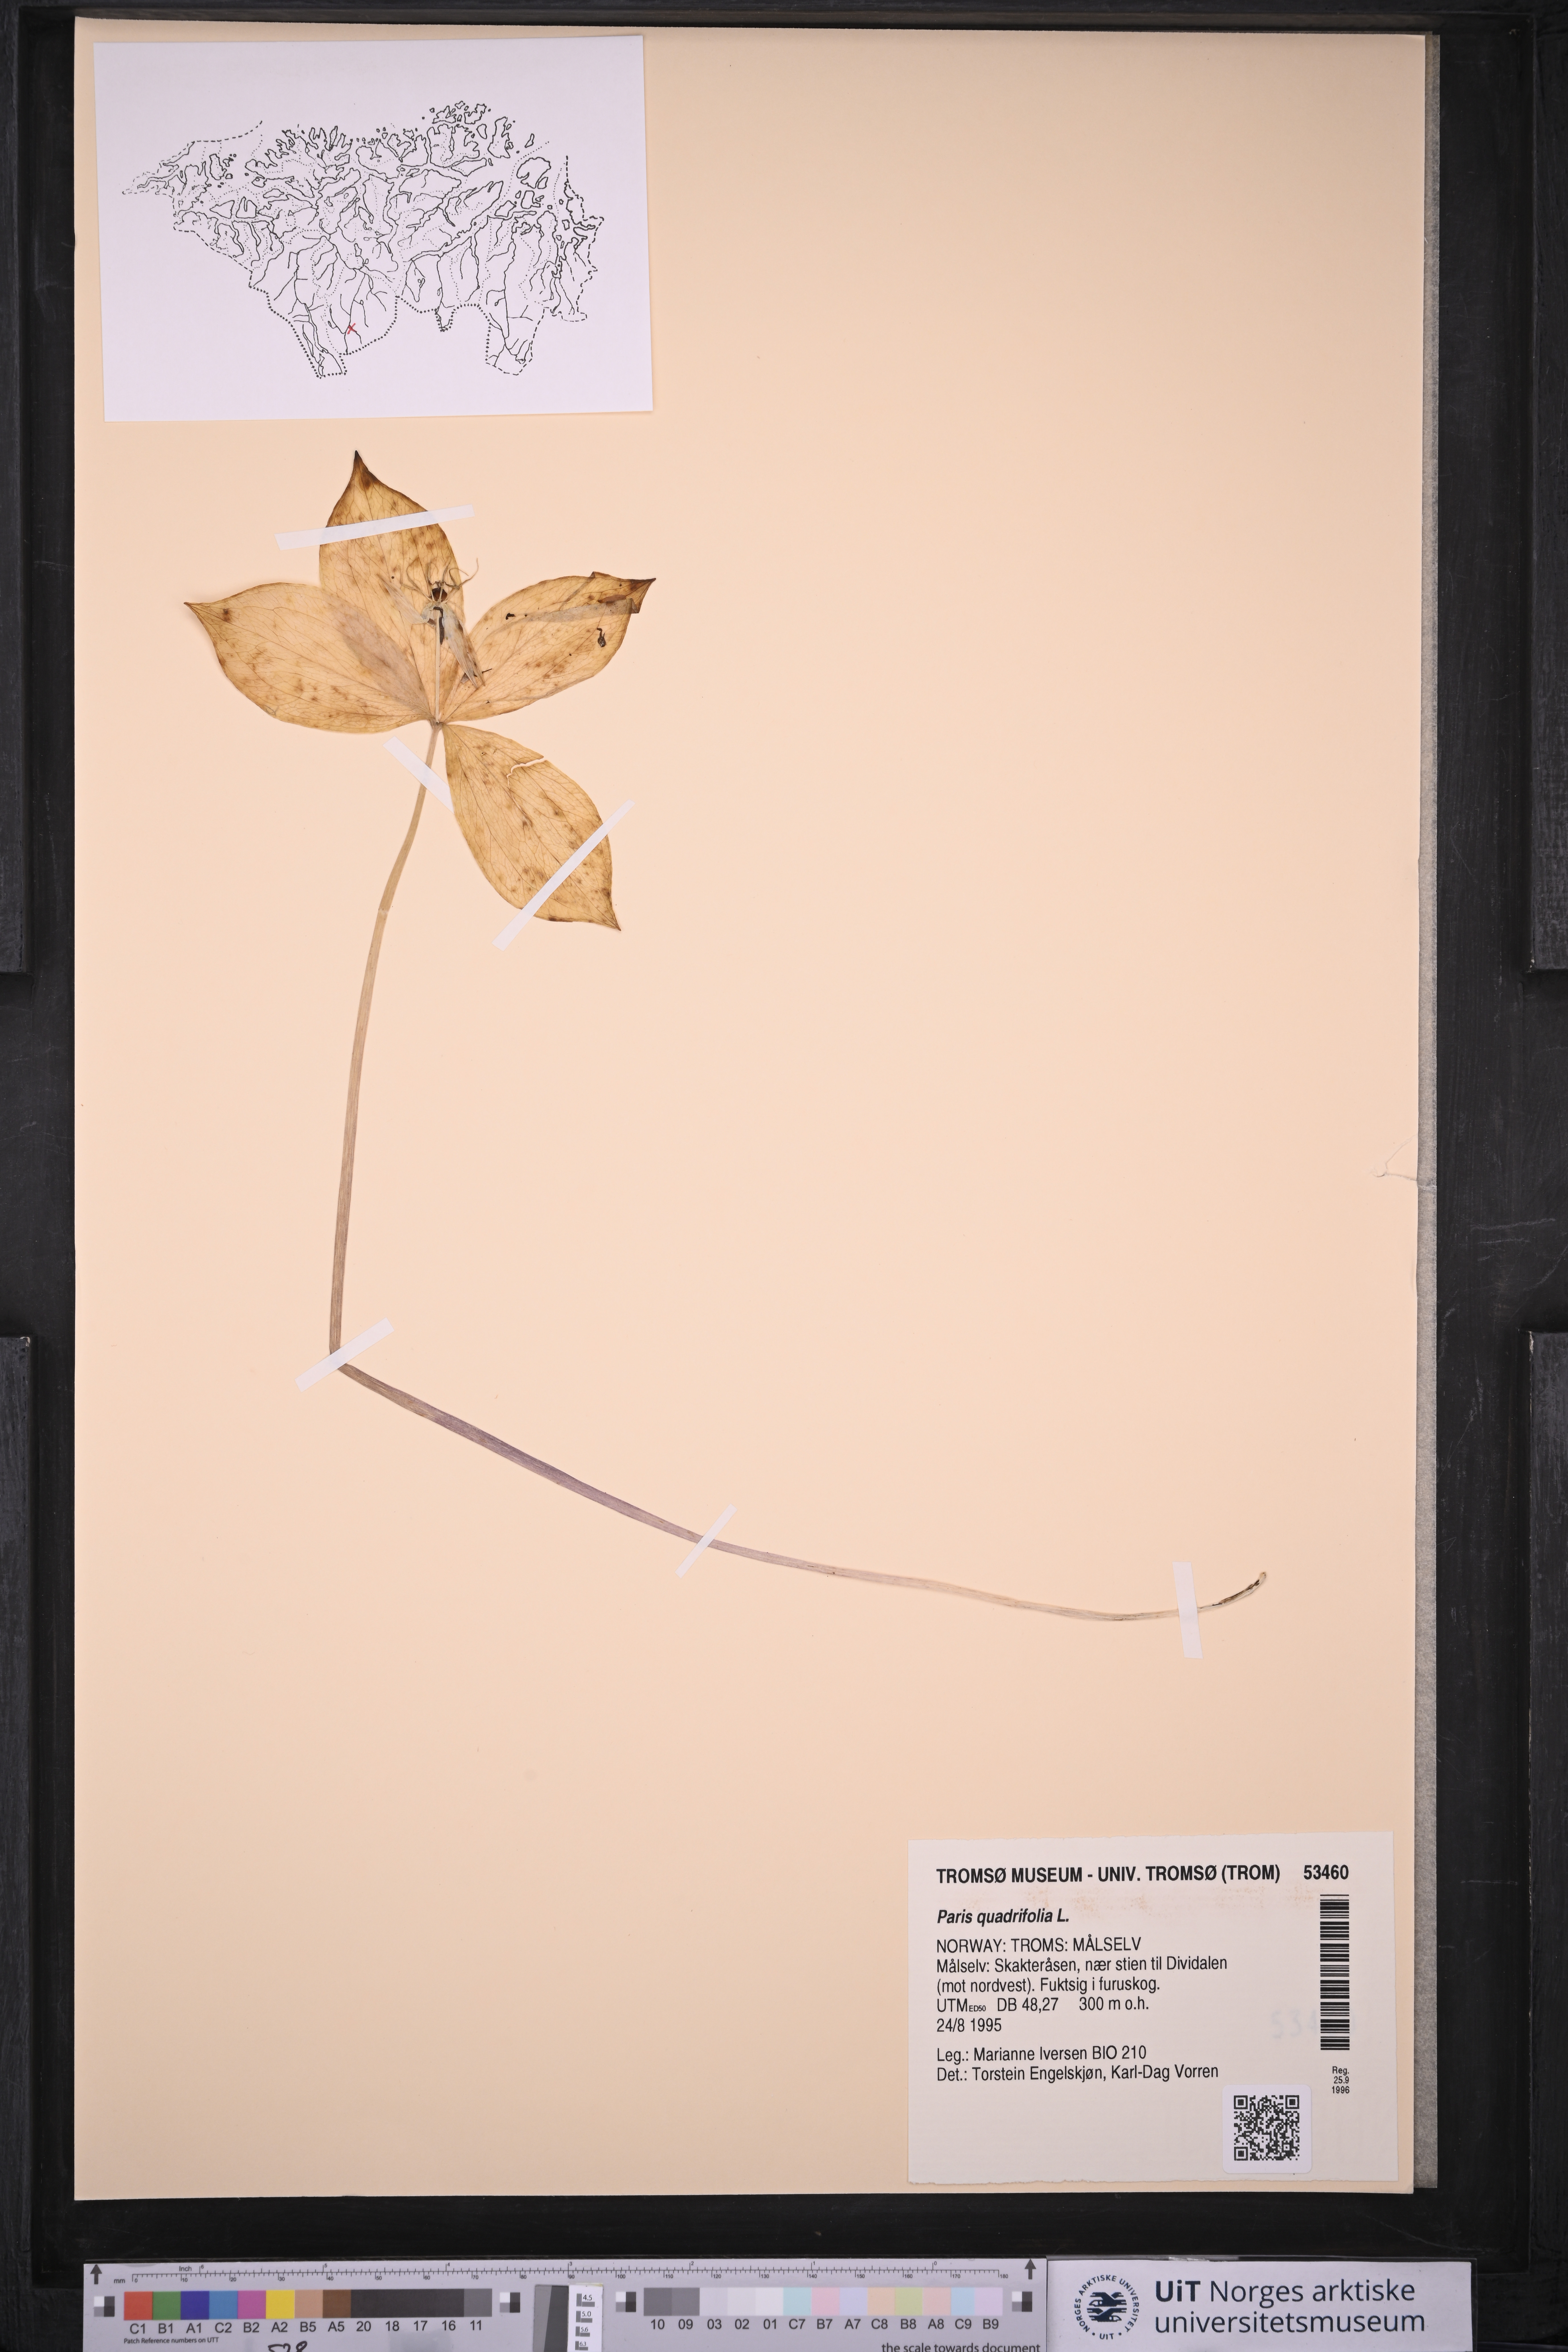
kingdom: Plantae
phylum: Tracheophyta
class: Liliopsida
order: Liliales
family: Melanthiaceae
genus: Paris
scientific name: Paris quadrifolia
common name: Herb-paris
